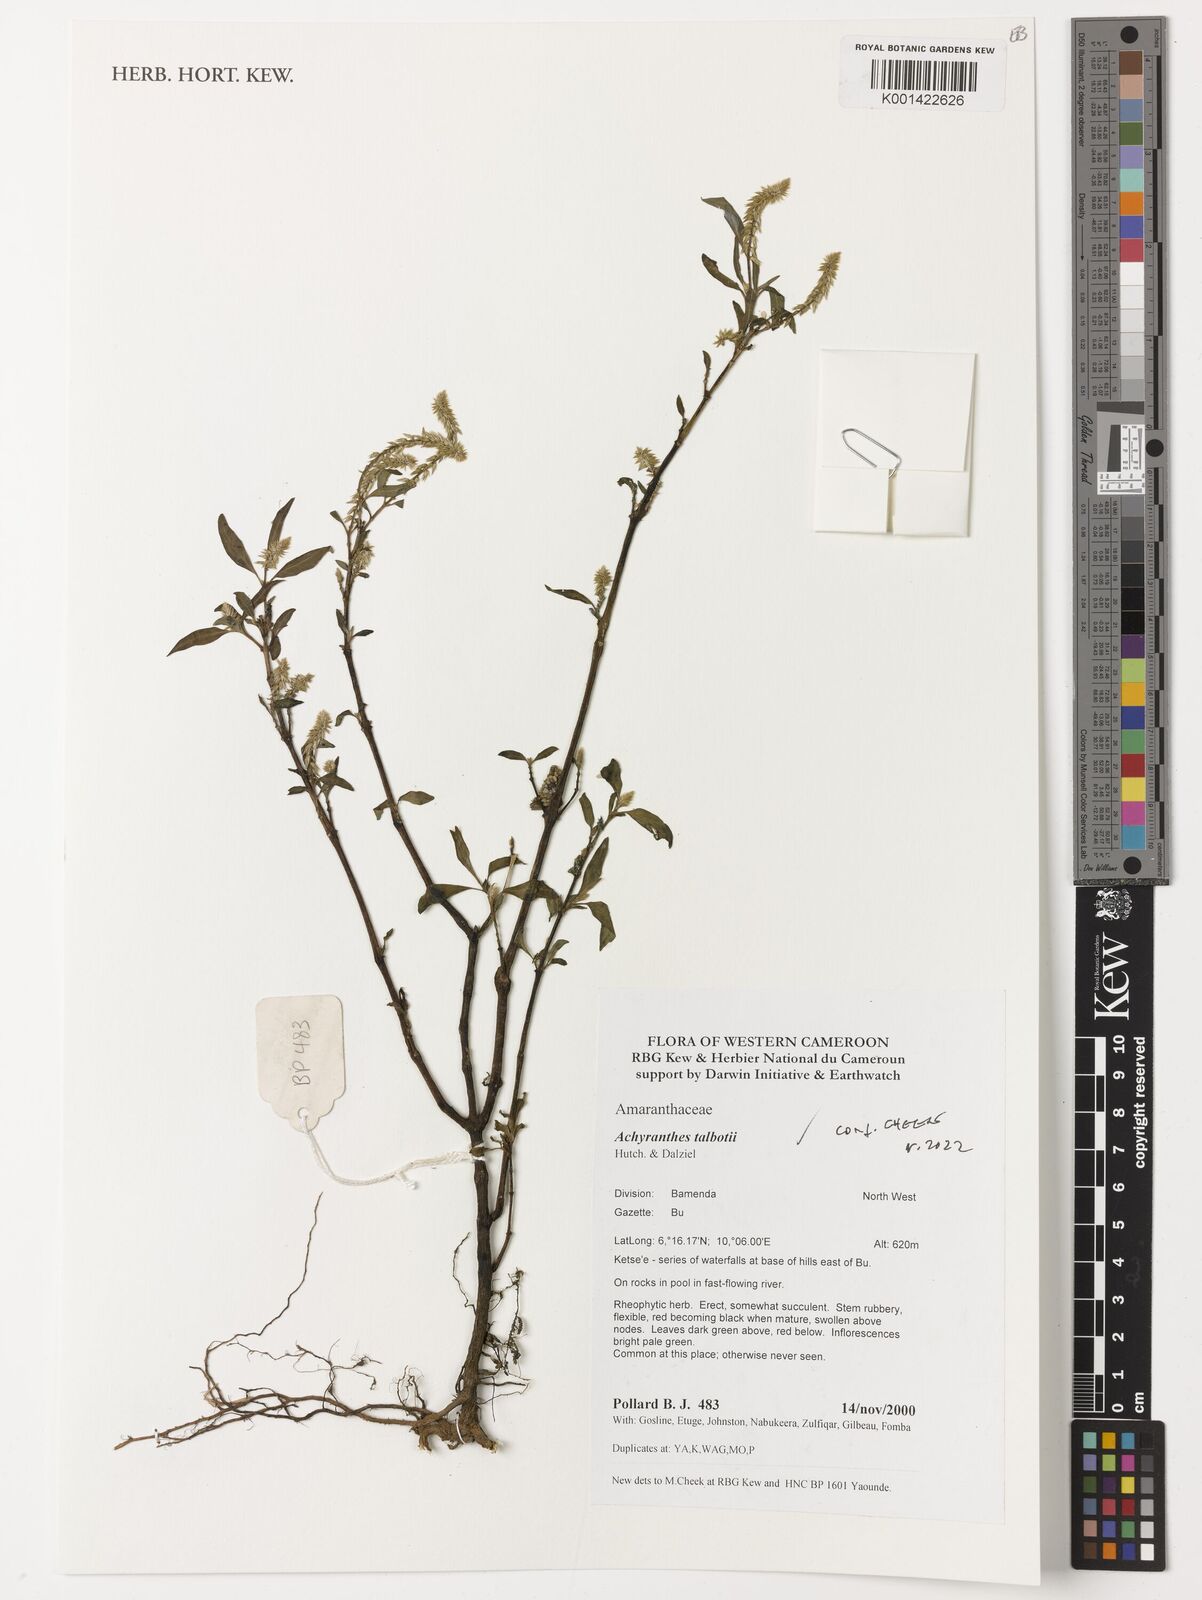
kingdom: Plantae
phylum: Tracheophyta
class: Magnoliopsida
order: Caryophyllales
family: Amaranthaceae
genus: Achyranthes
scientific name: Achyranthes talbotii
